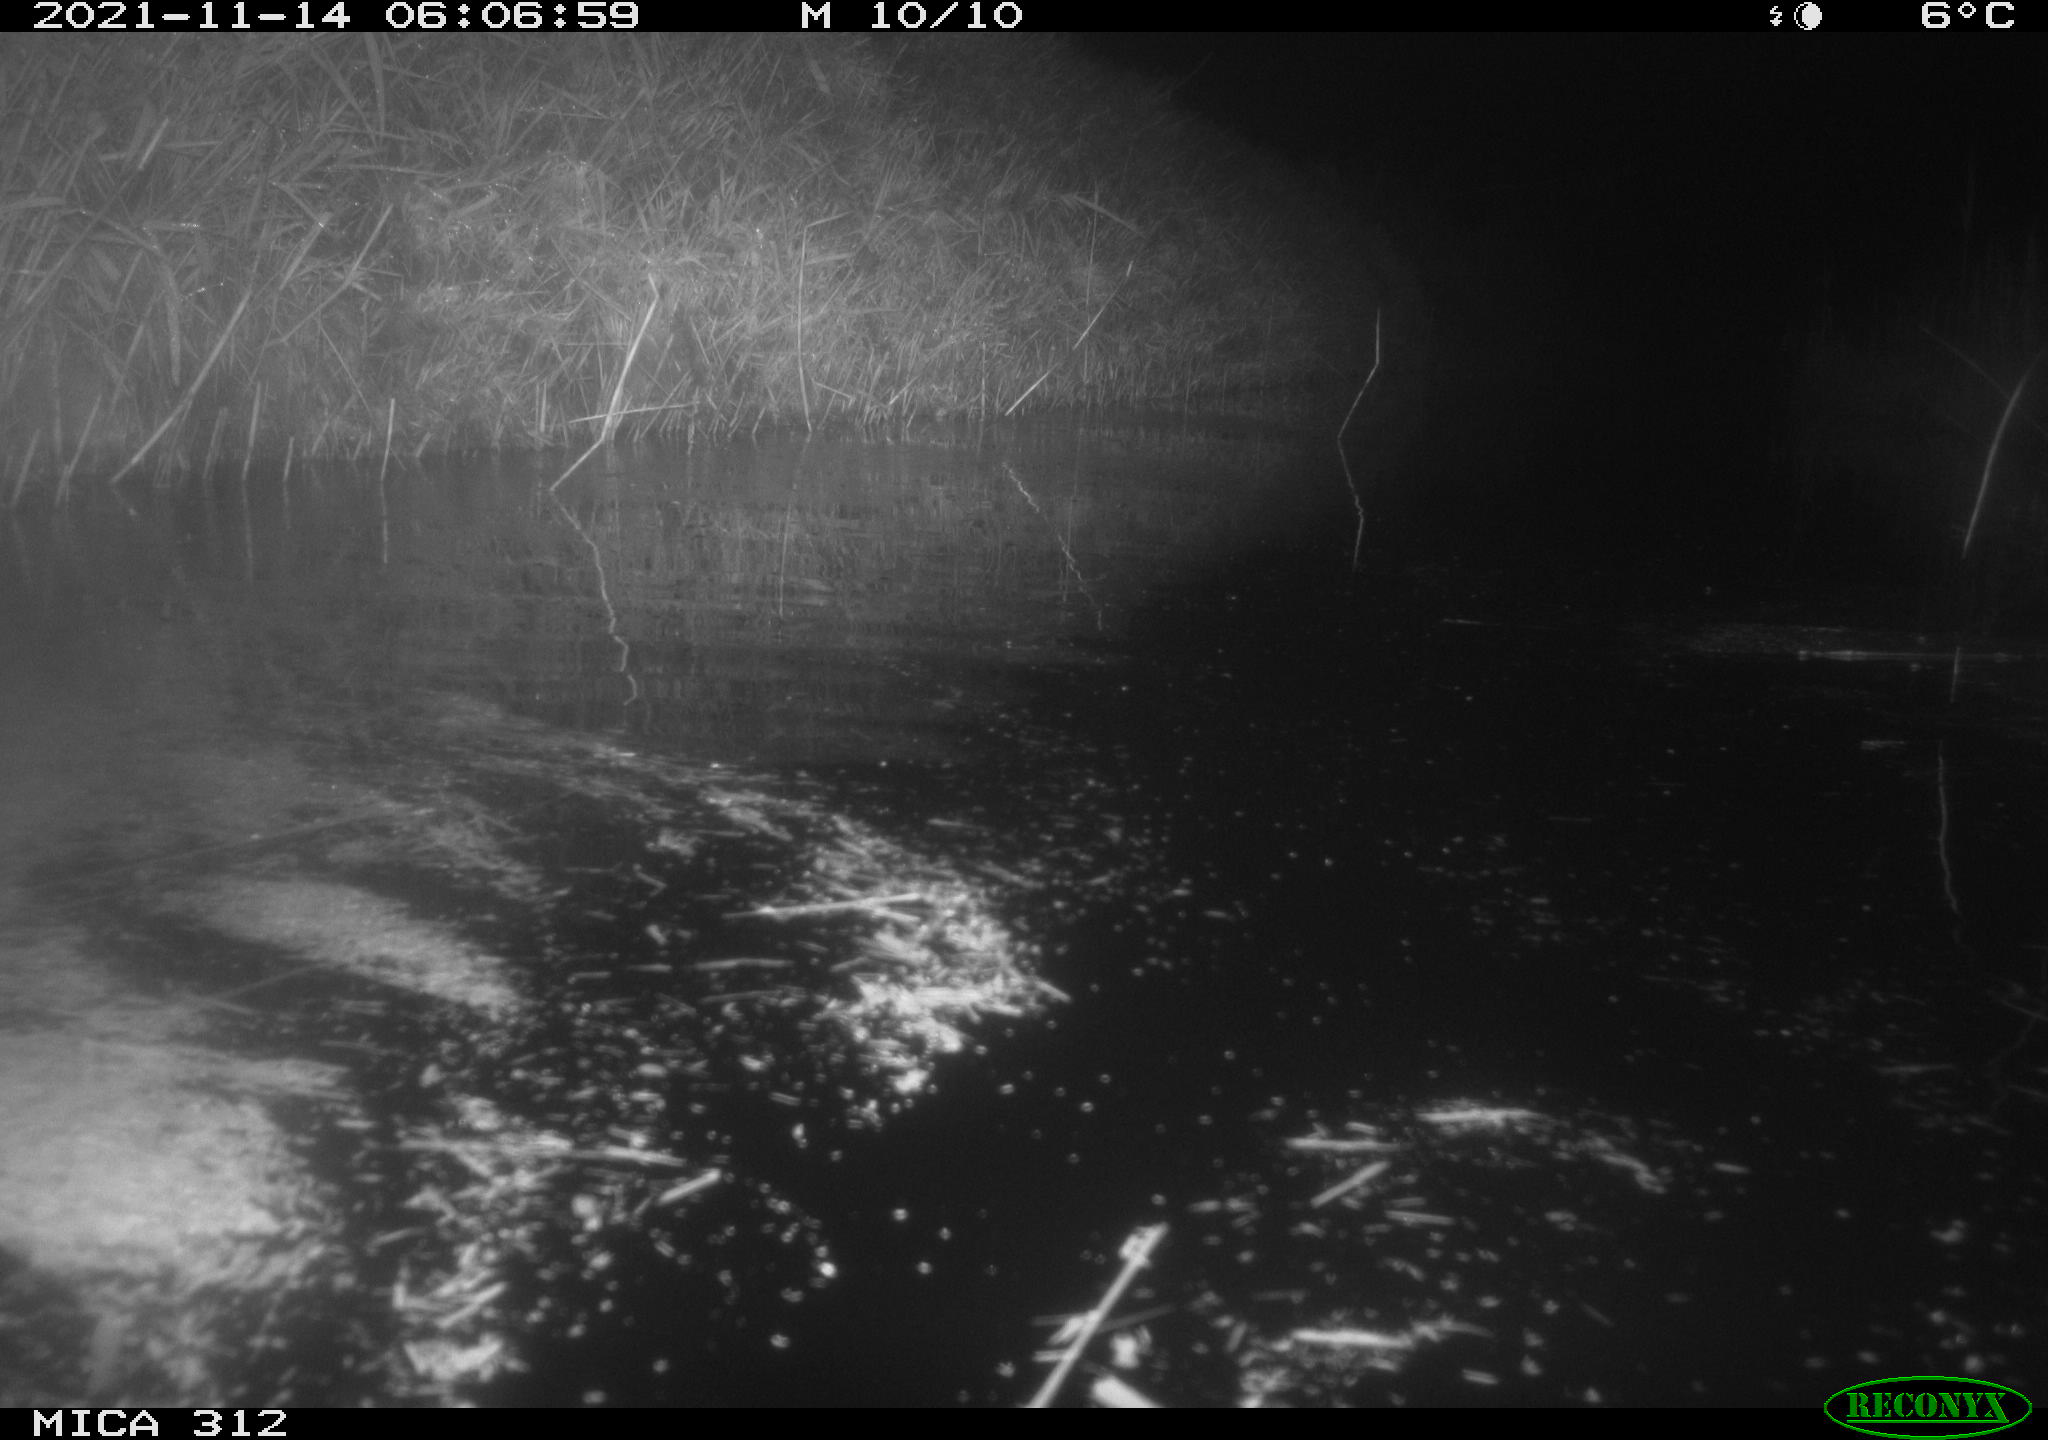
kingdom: Animalia
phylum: Chordata
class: Mammalia
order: Rodentia
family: Muridae
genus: Rattus
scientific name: Rattus norvegicus
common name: Brown rat
